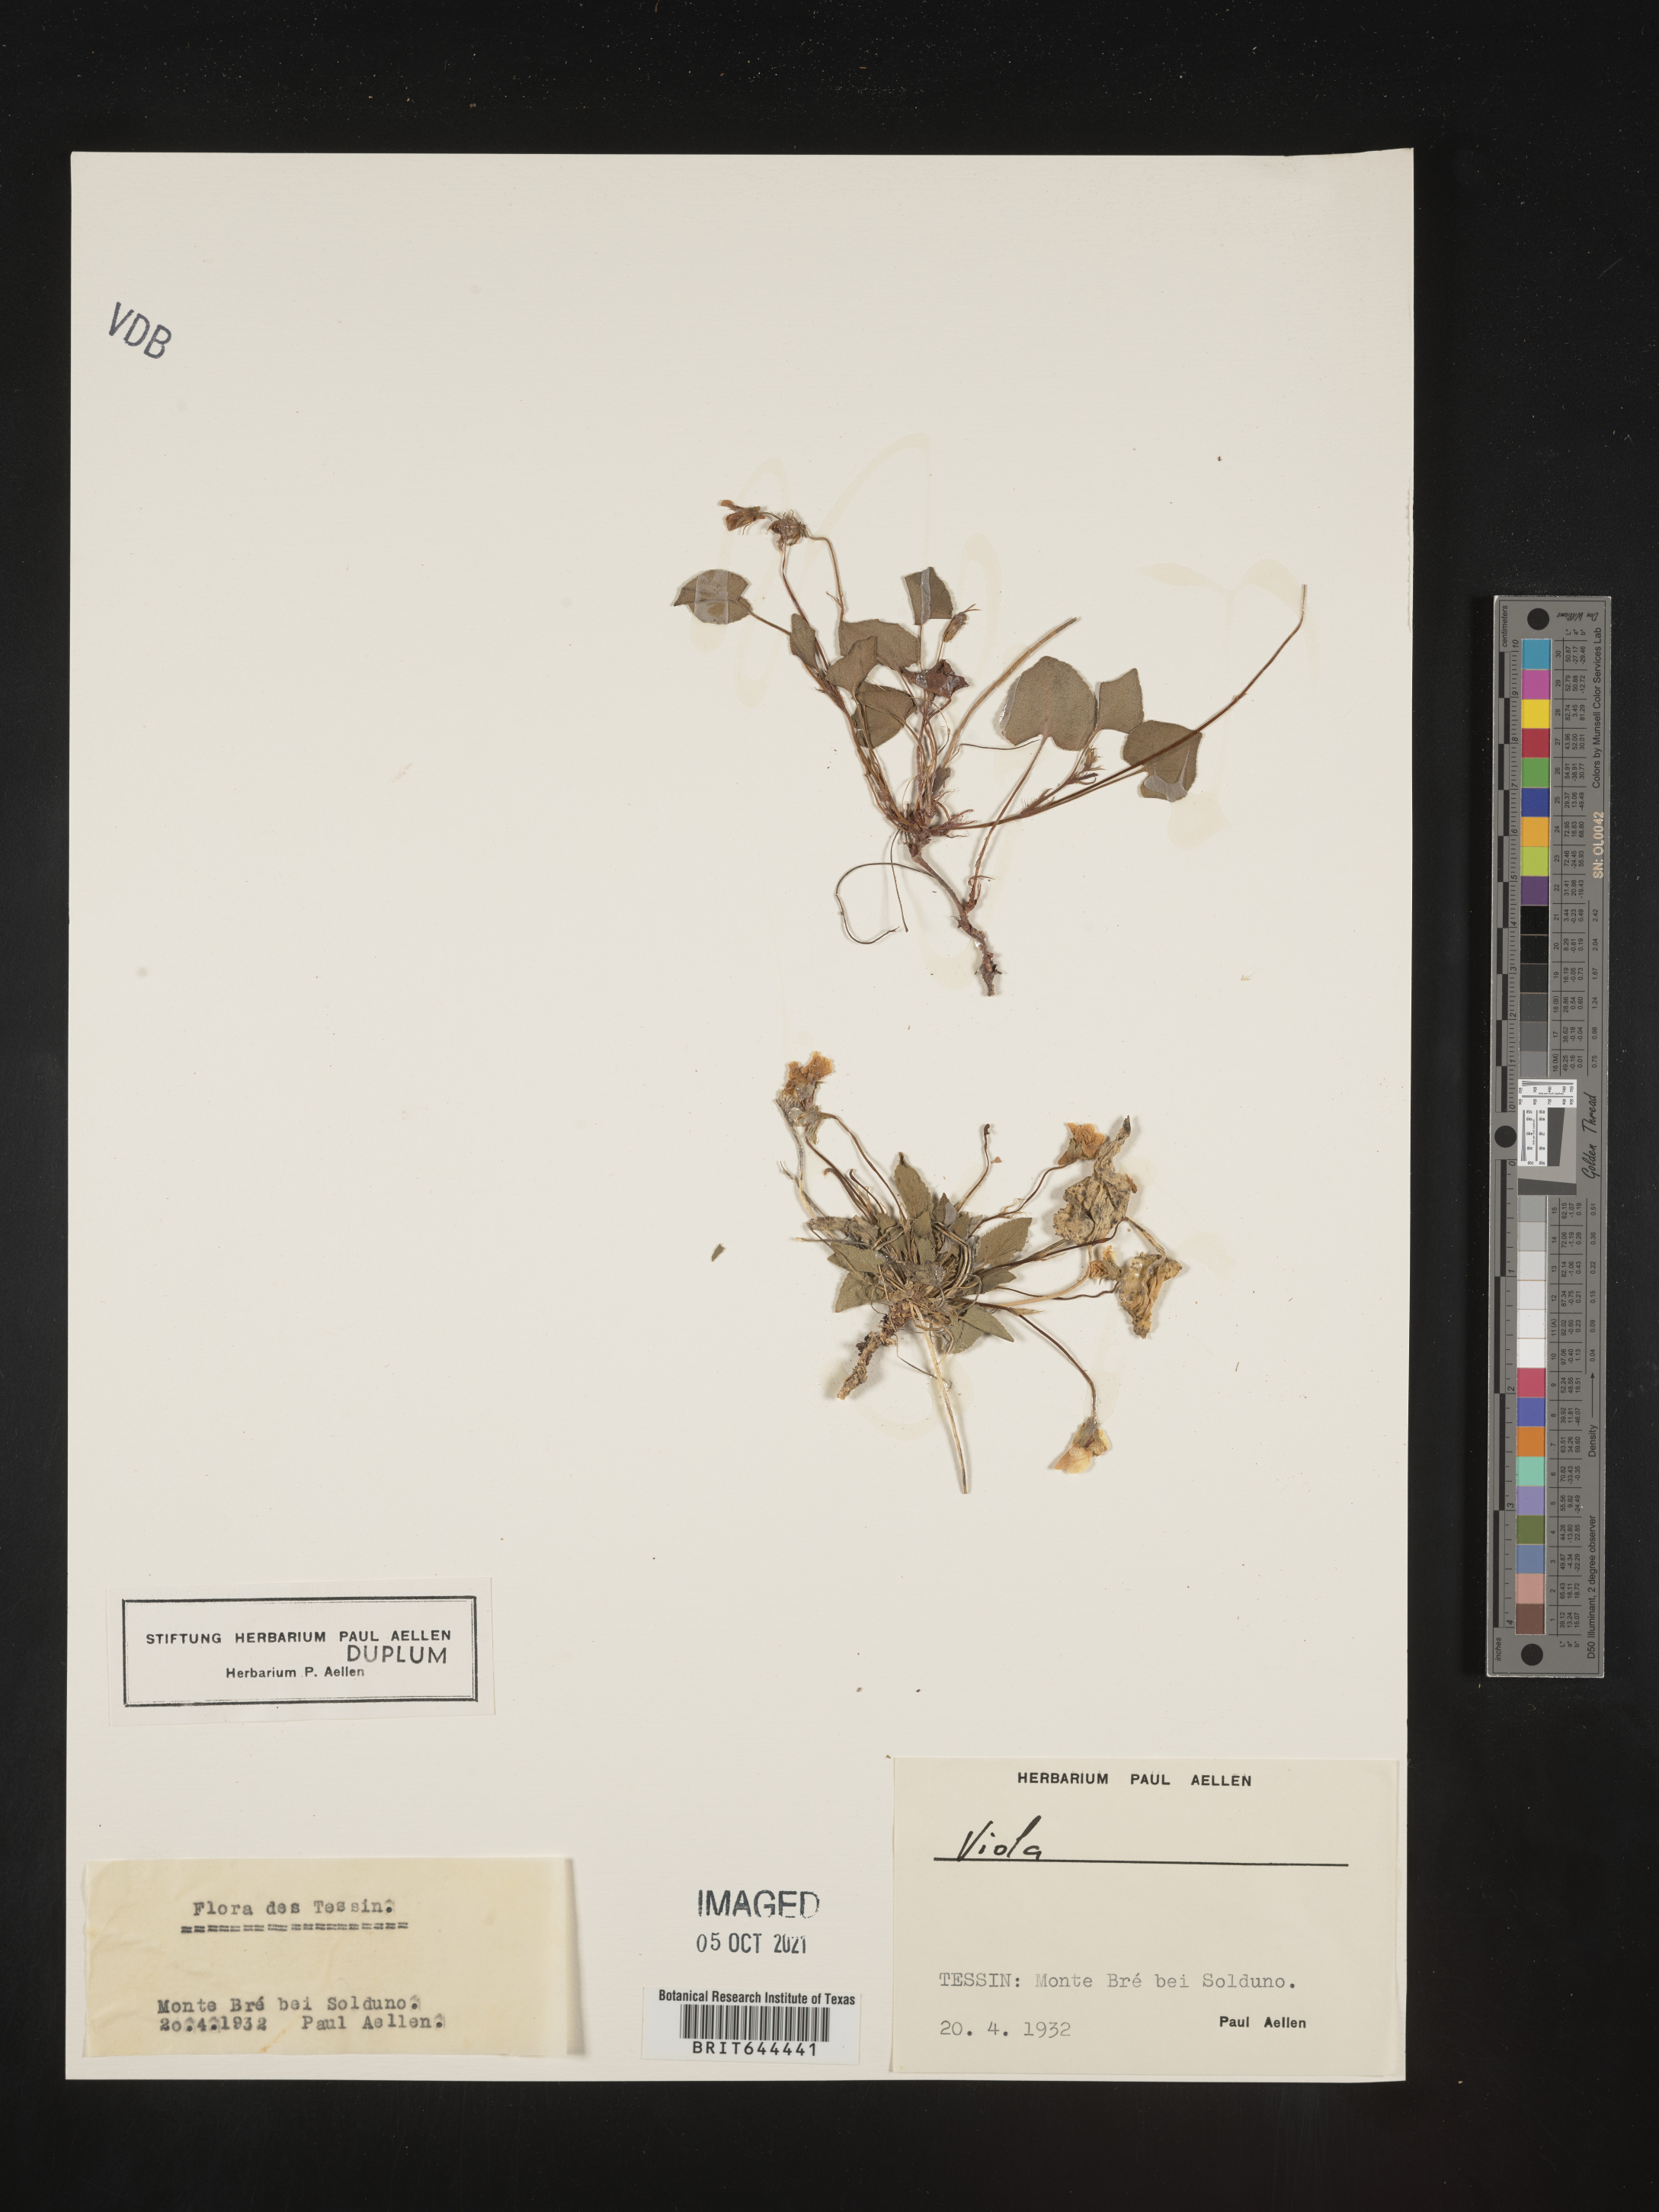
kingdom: Plantae
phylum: Tracheophyta
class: Magnoliopsida
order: Malpighiales
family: Violaceae
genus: Viola
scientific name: Viola
